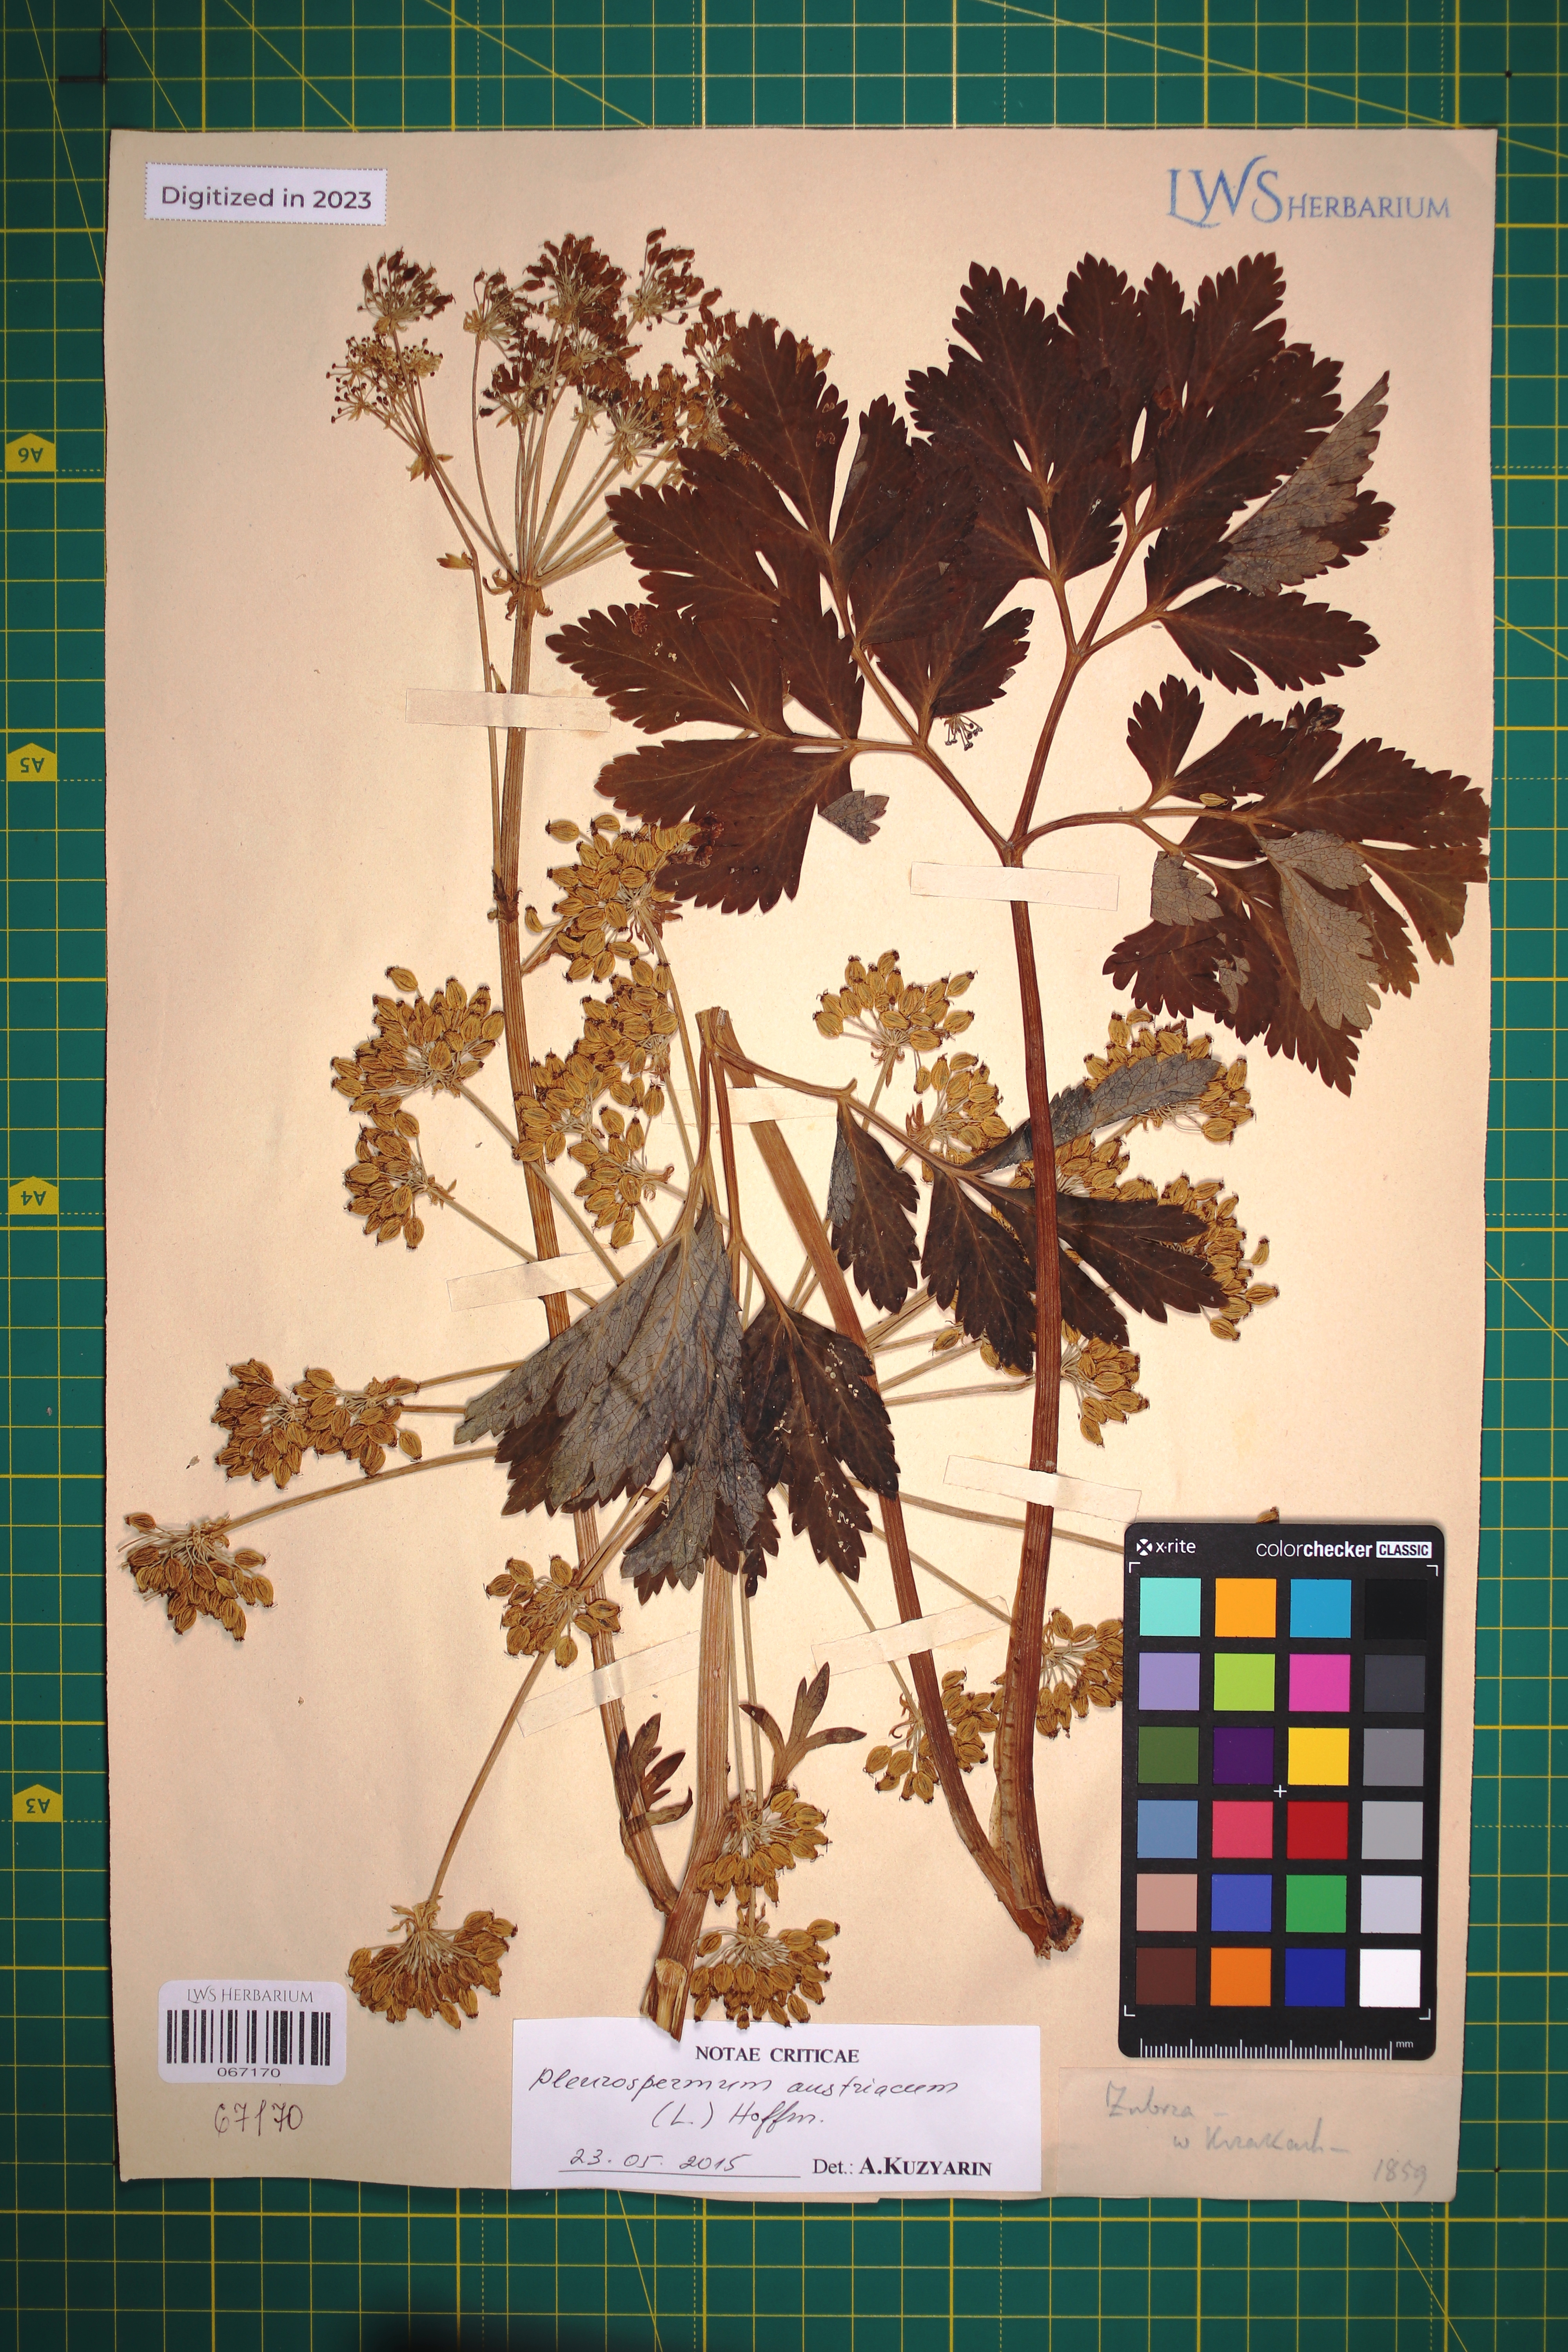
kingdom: Plantae
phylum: Tracheophyta
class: Magnoliopsida
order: Apiales
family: Apiaceae
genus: Pleurospermum
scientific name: Pleurospermum austriacum
